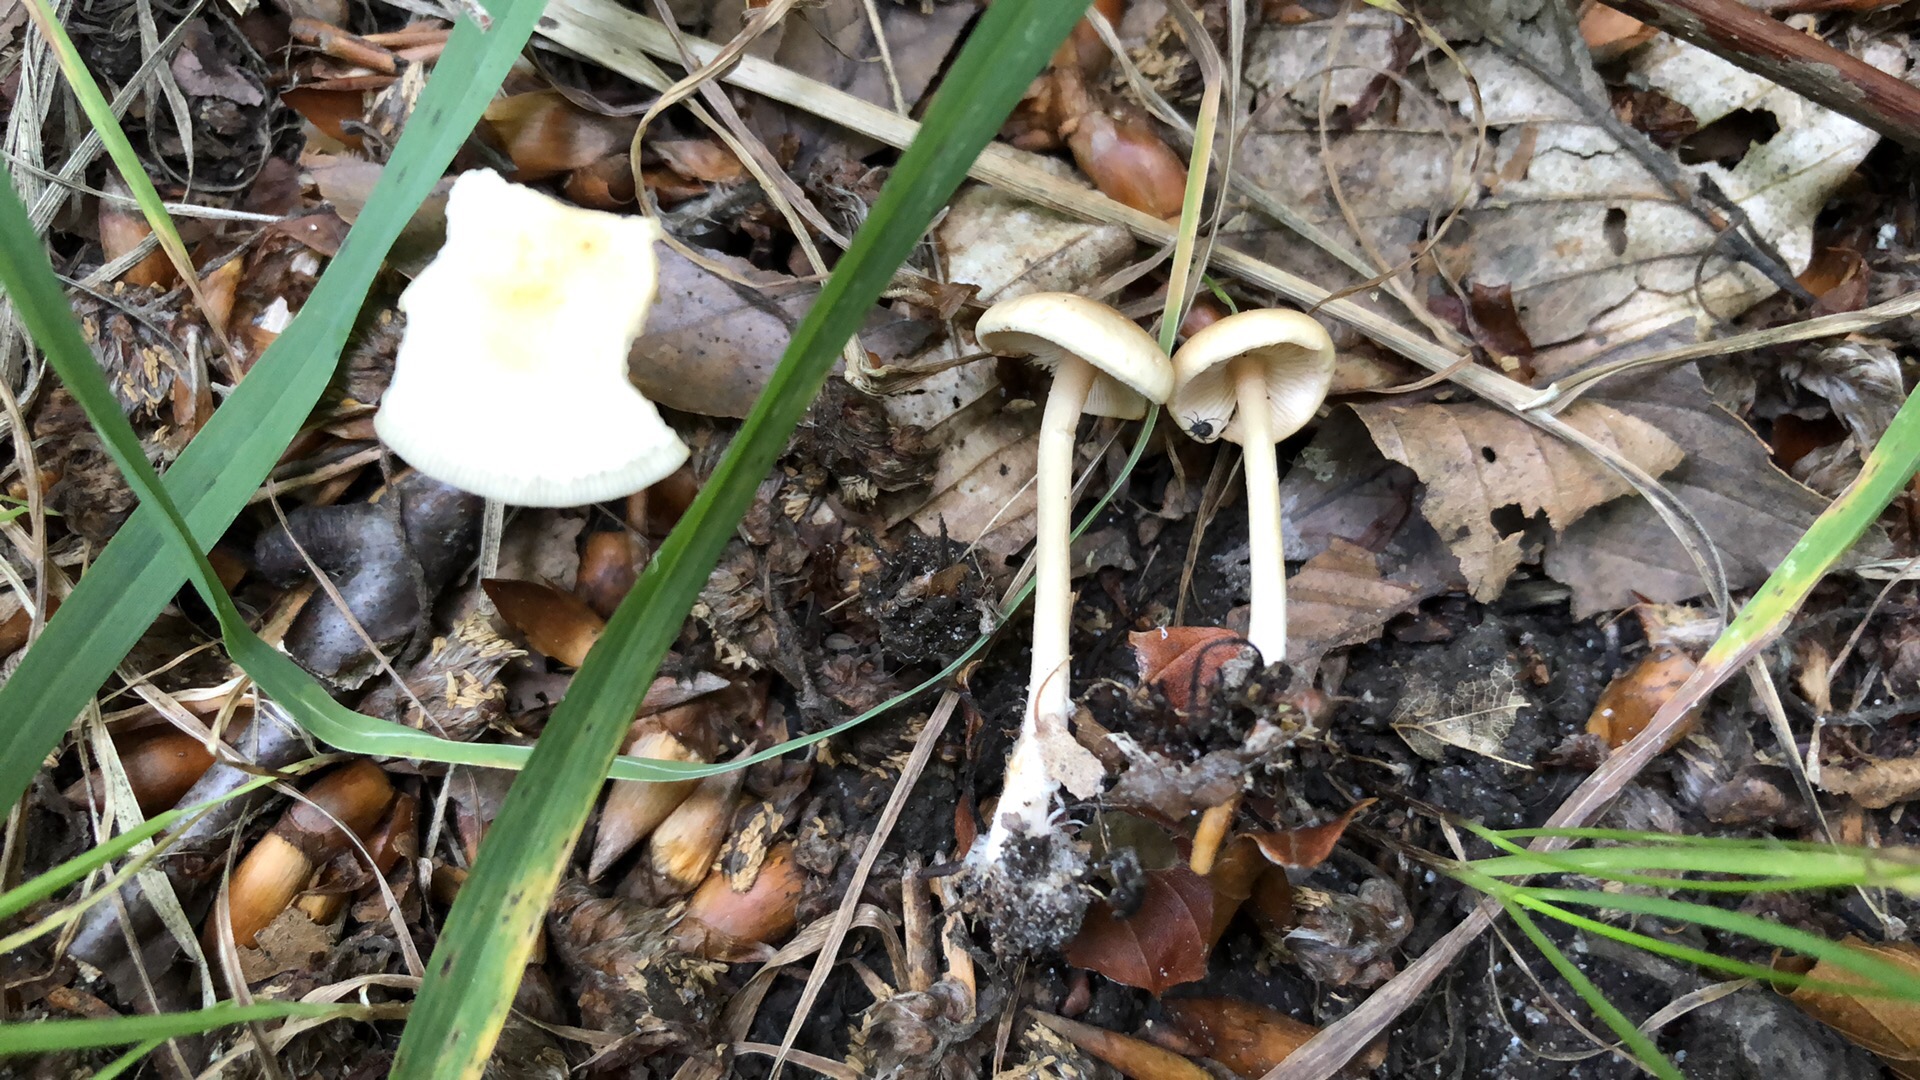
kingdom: Fungi
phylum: Basidiomycota
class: Agaricomycetes
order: Agaricales
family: Omphalotaceae
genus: Gymnopus
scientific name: Gymnopus aquosus
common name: bleg fladhat
